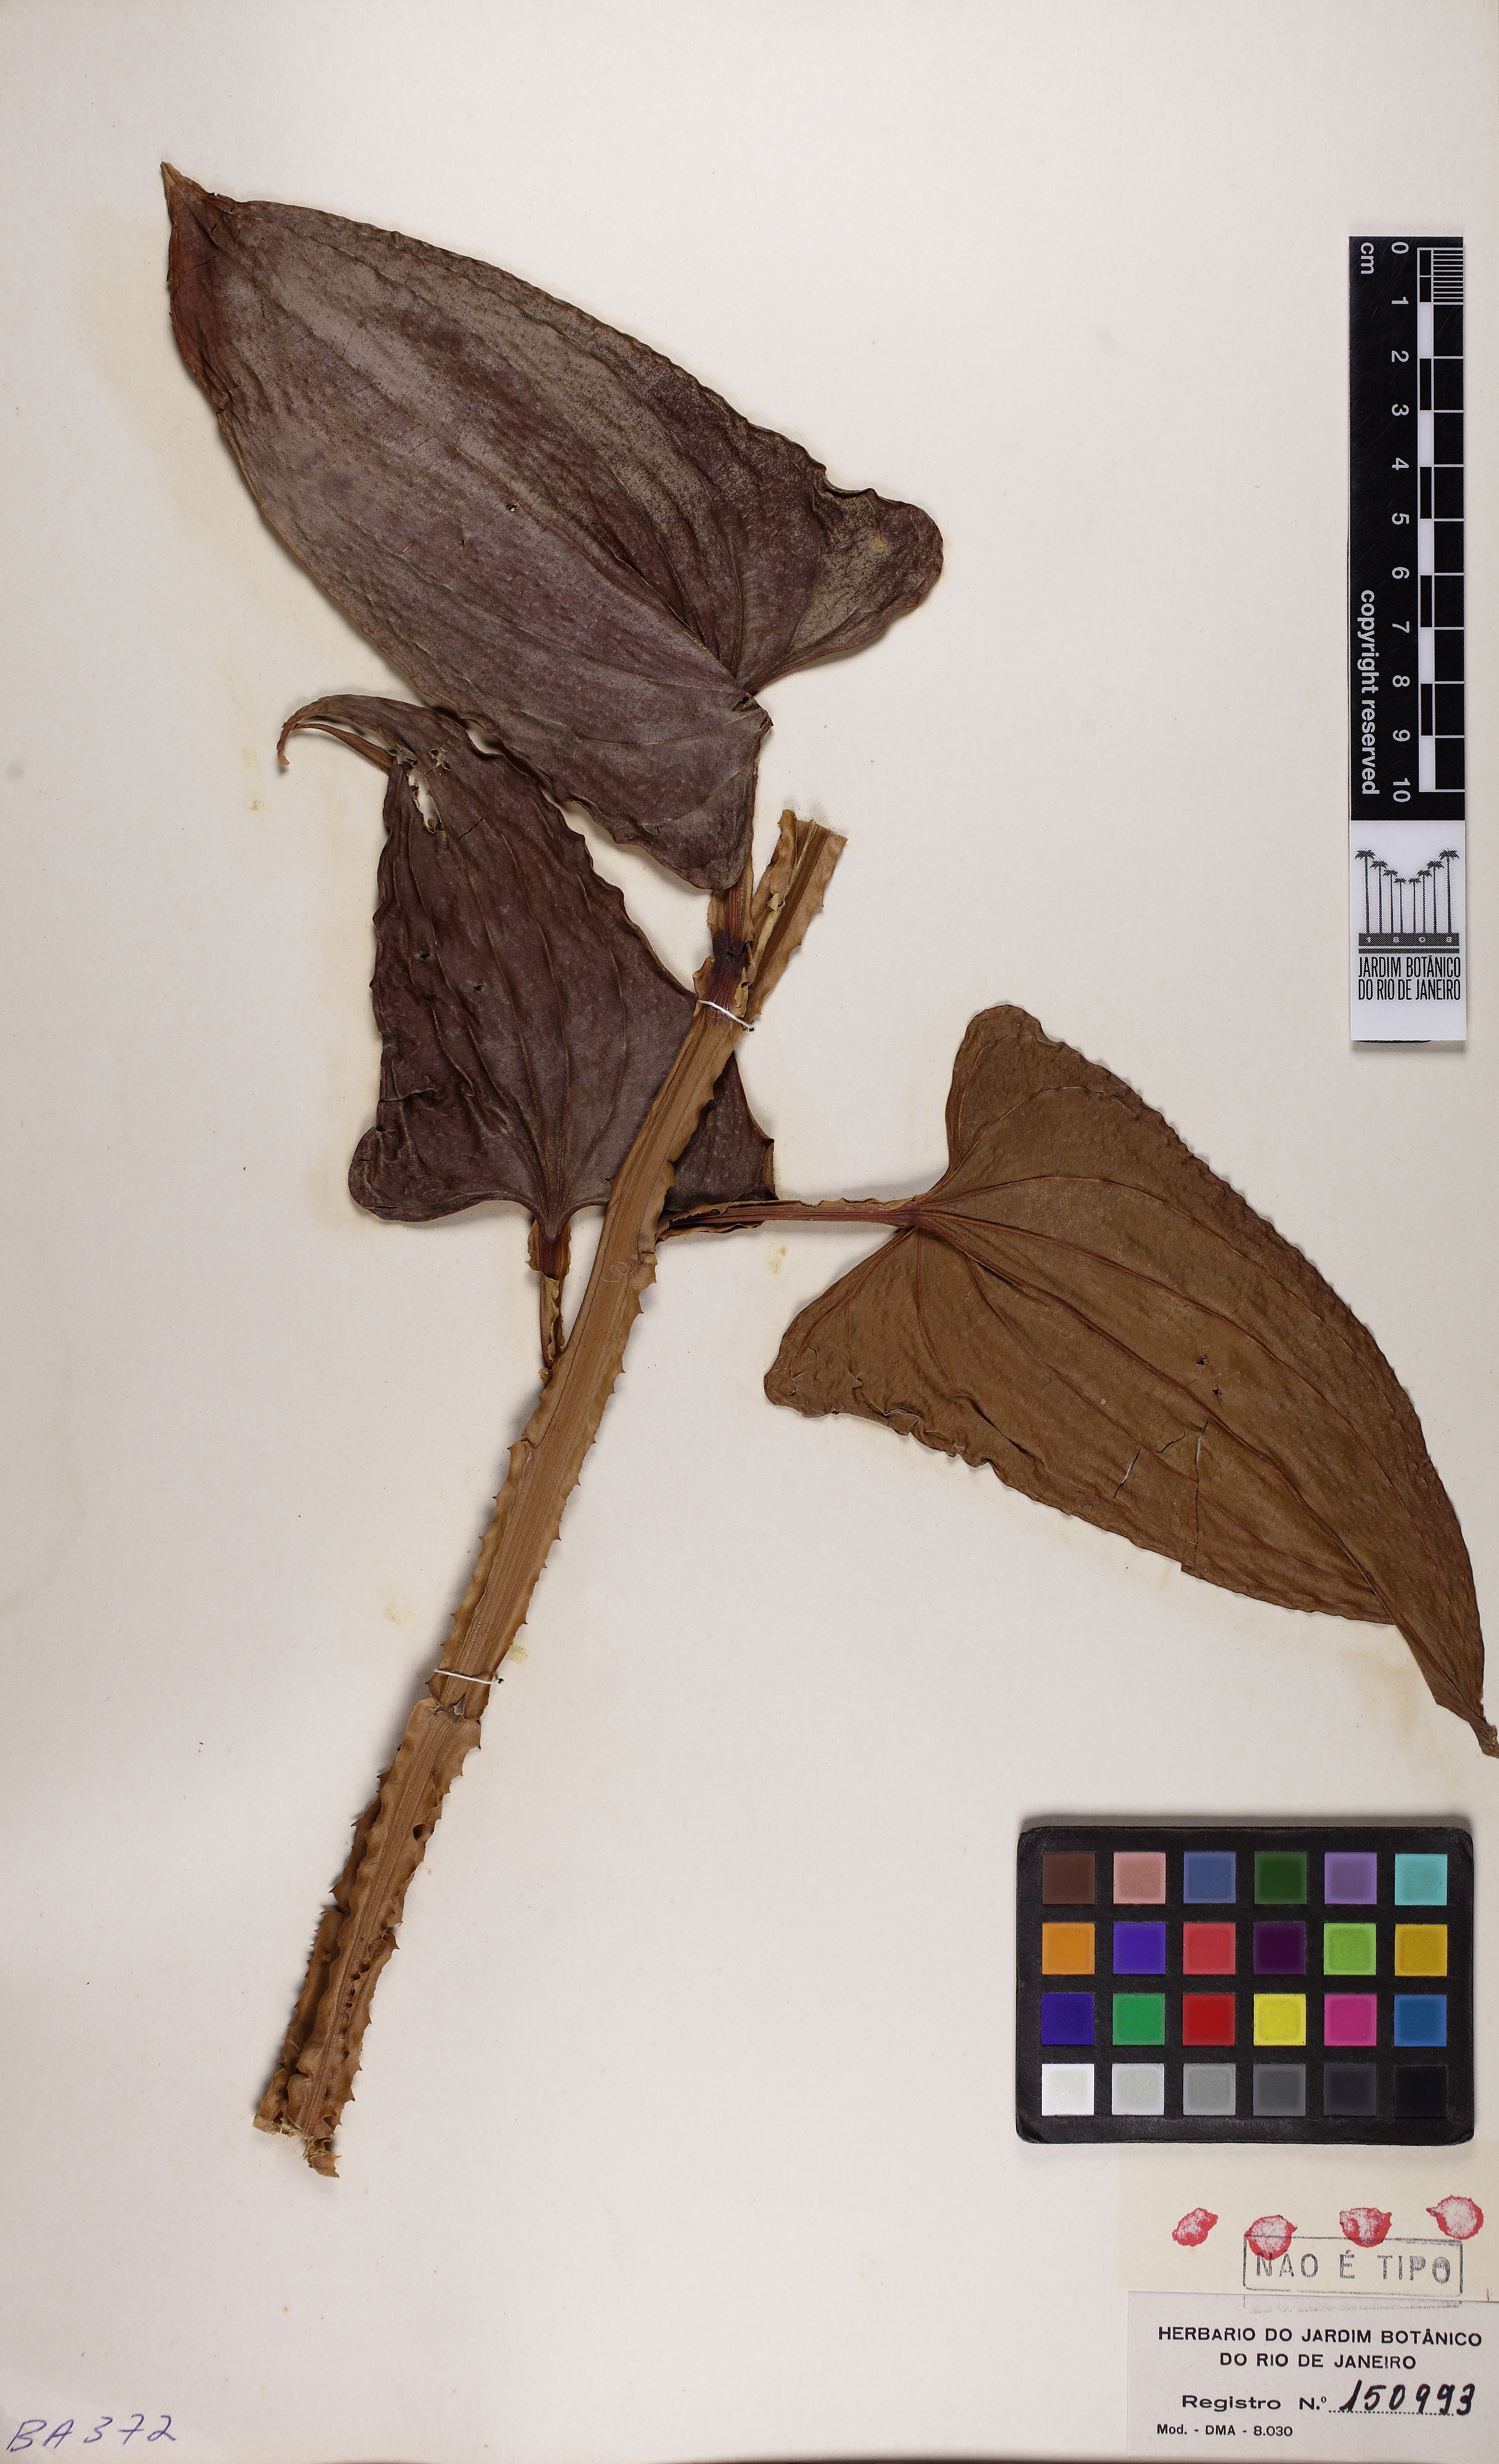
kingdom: Plantae
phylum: Tracheophyta
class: Liliopsida
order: Dioscoreales
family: Dioscoreaceae
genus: Dioscorea
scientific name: Dioscorea chondrocarpa
